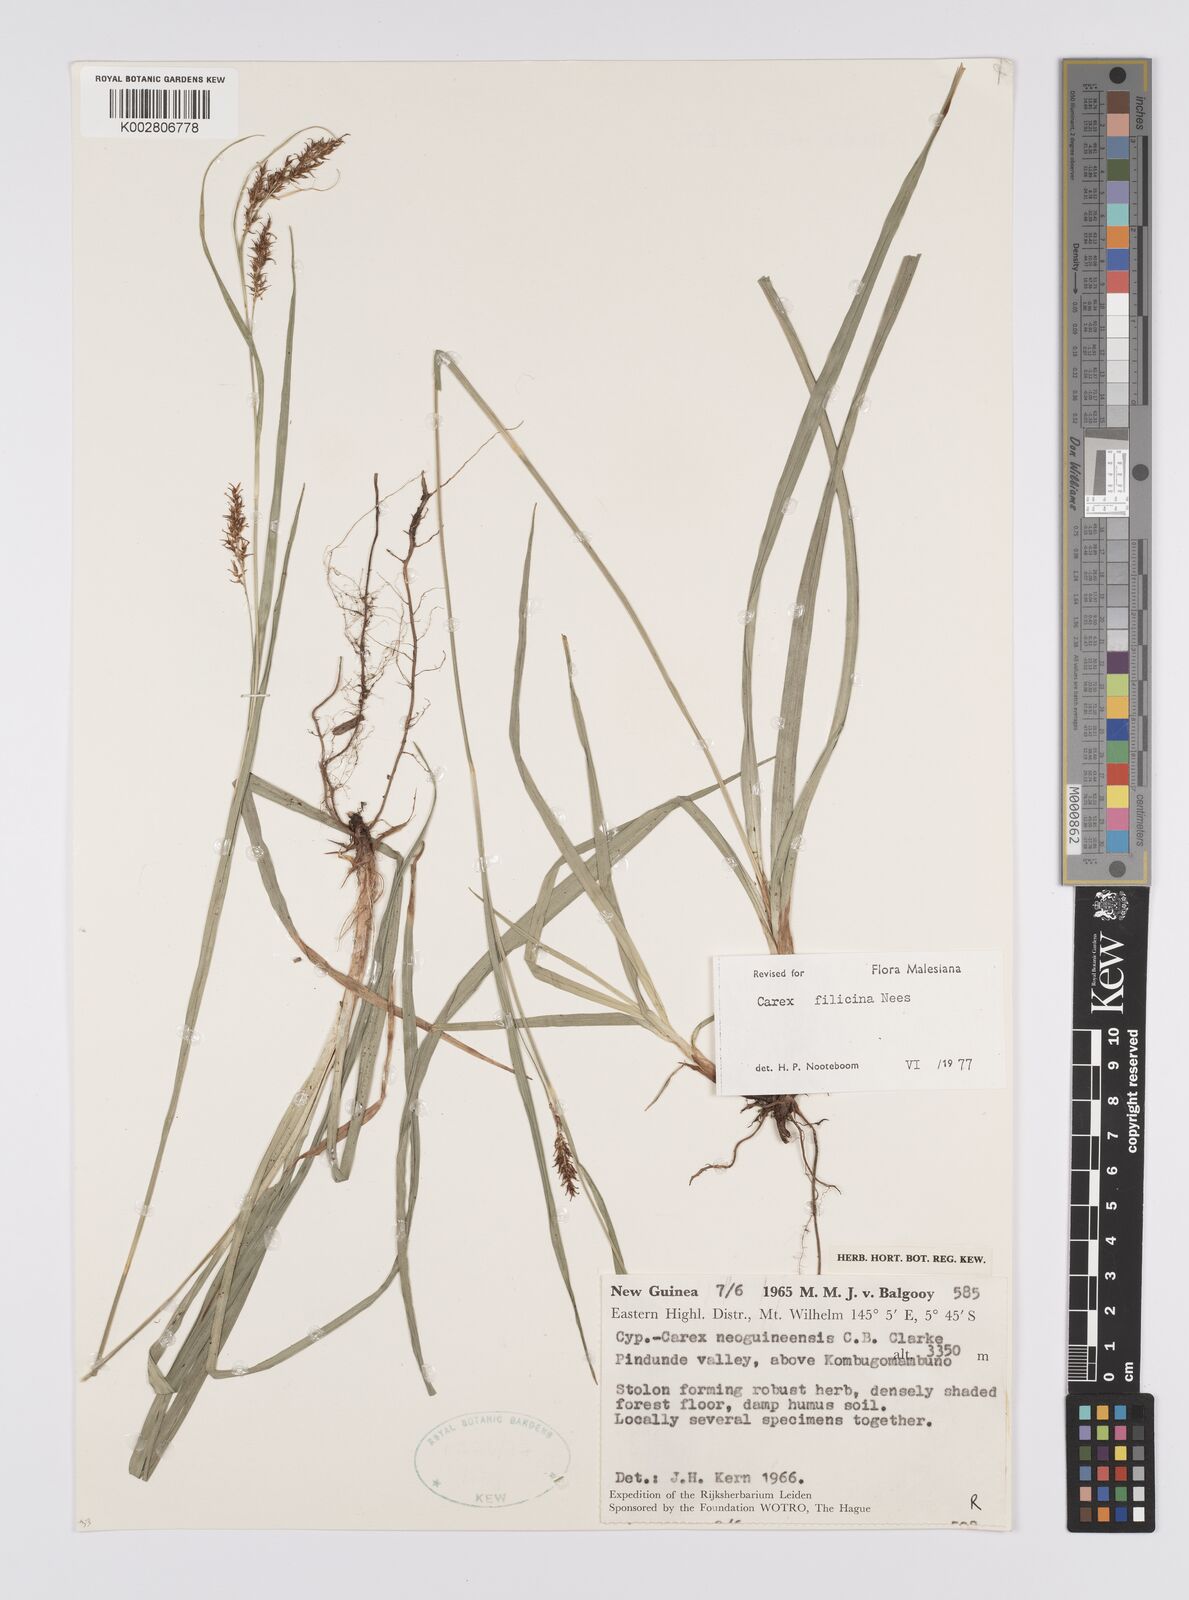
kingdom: Plantae
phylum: Tracheophyta
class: Liliopsida
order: Poales
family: Cyperaceae
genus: Carex
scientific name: Carex filicina
